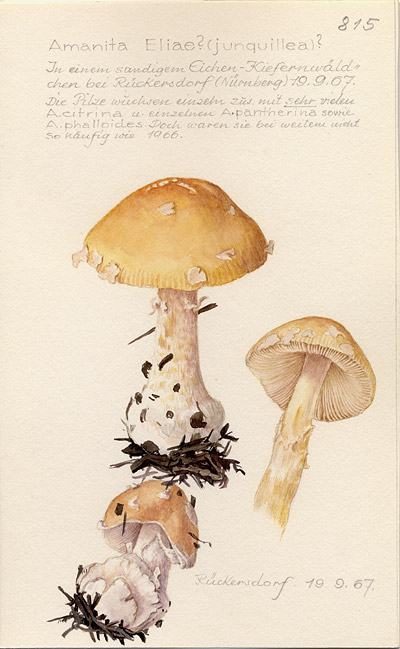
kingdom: Fungi
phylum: Basidiomycota
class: Agaricomycetes
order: Agaricales
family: Amanitaceae
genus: Amanita
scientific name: Amanita eliae
